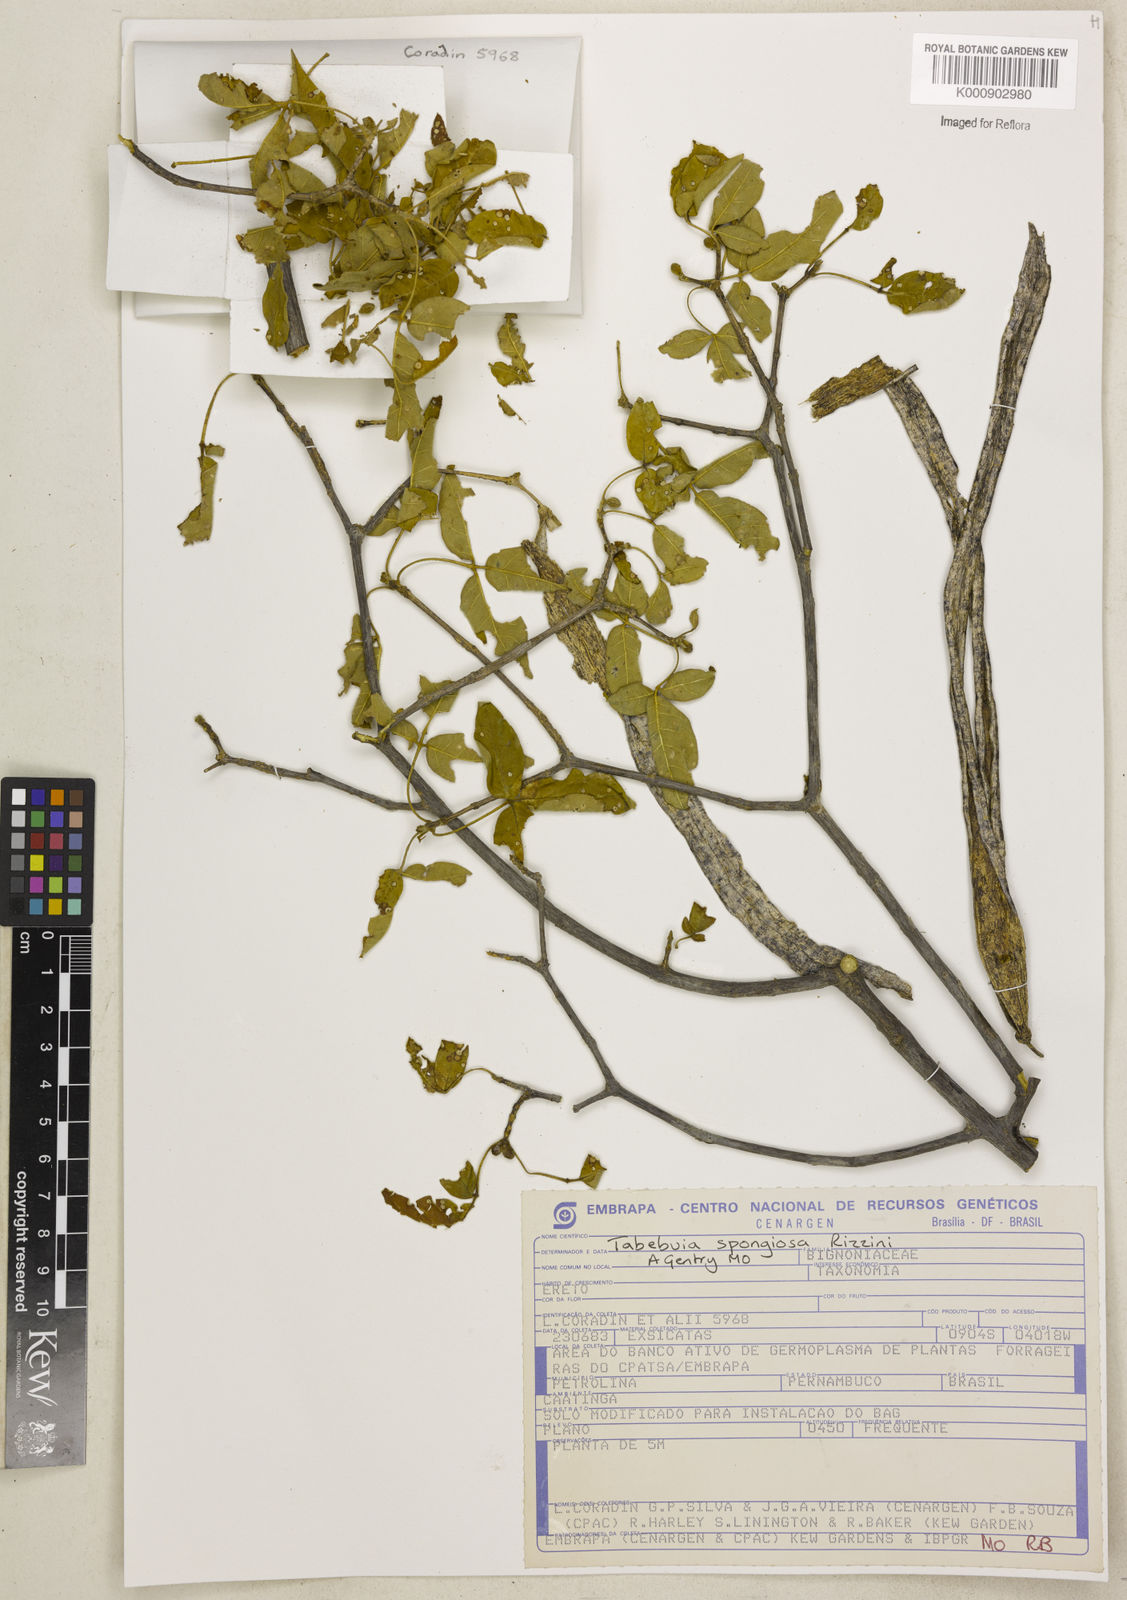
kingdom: Plantae
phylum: Tracheophyta
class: Magnoliopsida
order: Lamiales
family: Bignoniaceae
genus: Handroanthus
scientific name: Handroanthus spongiosus
